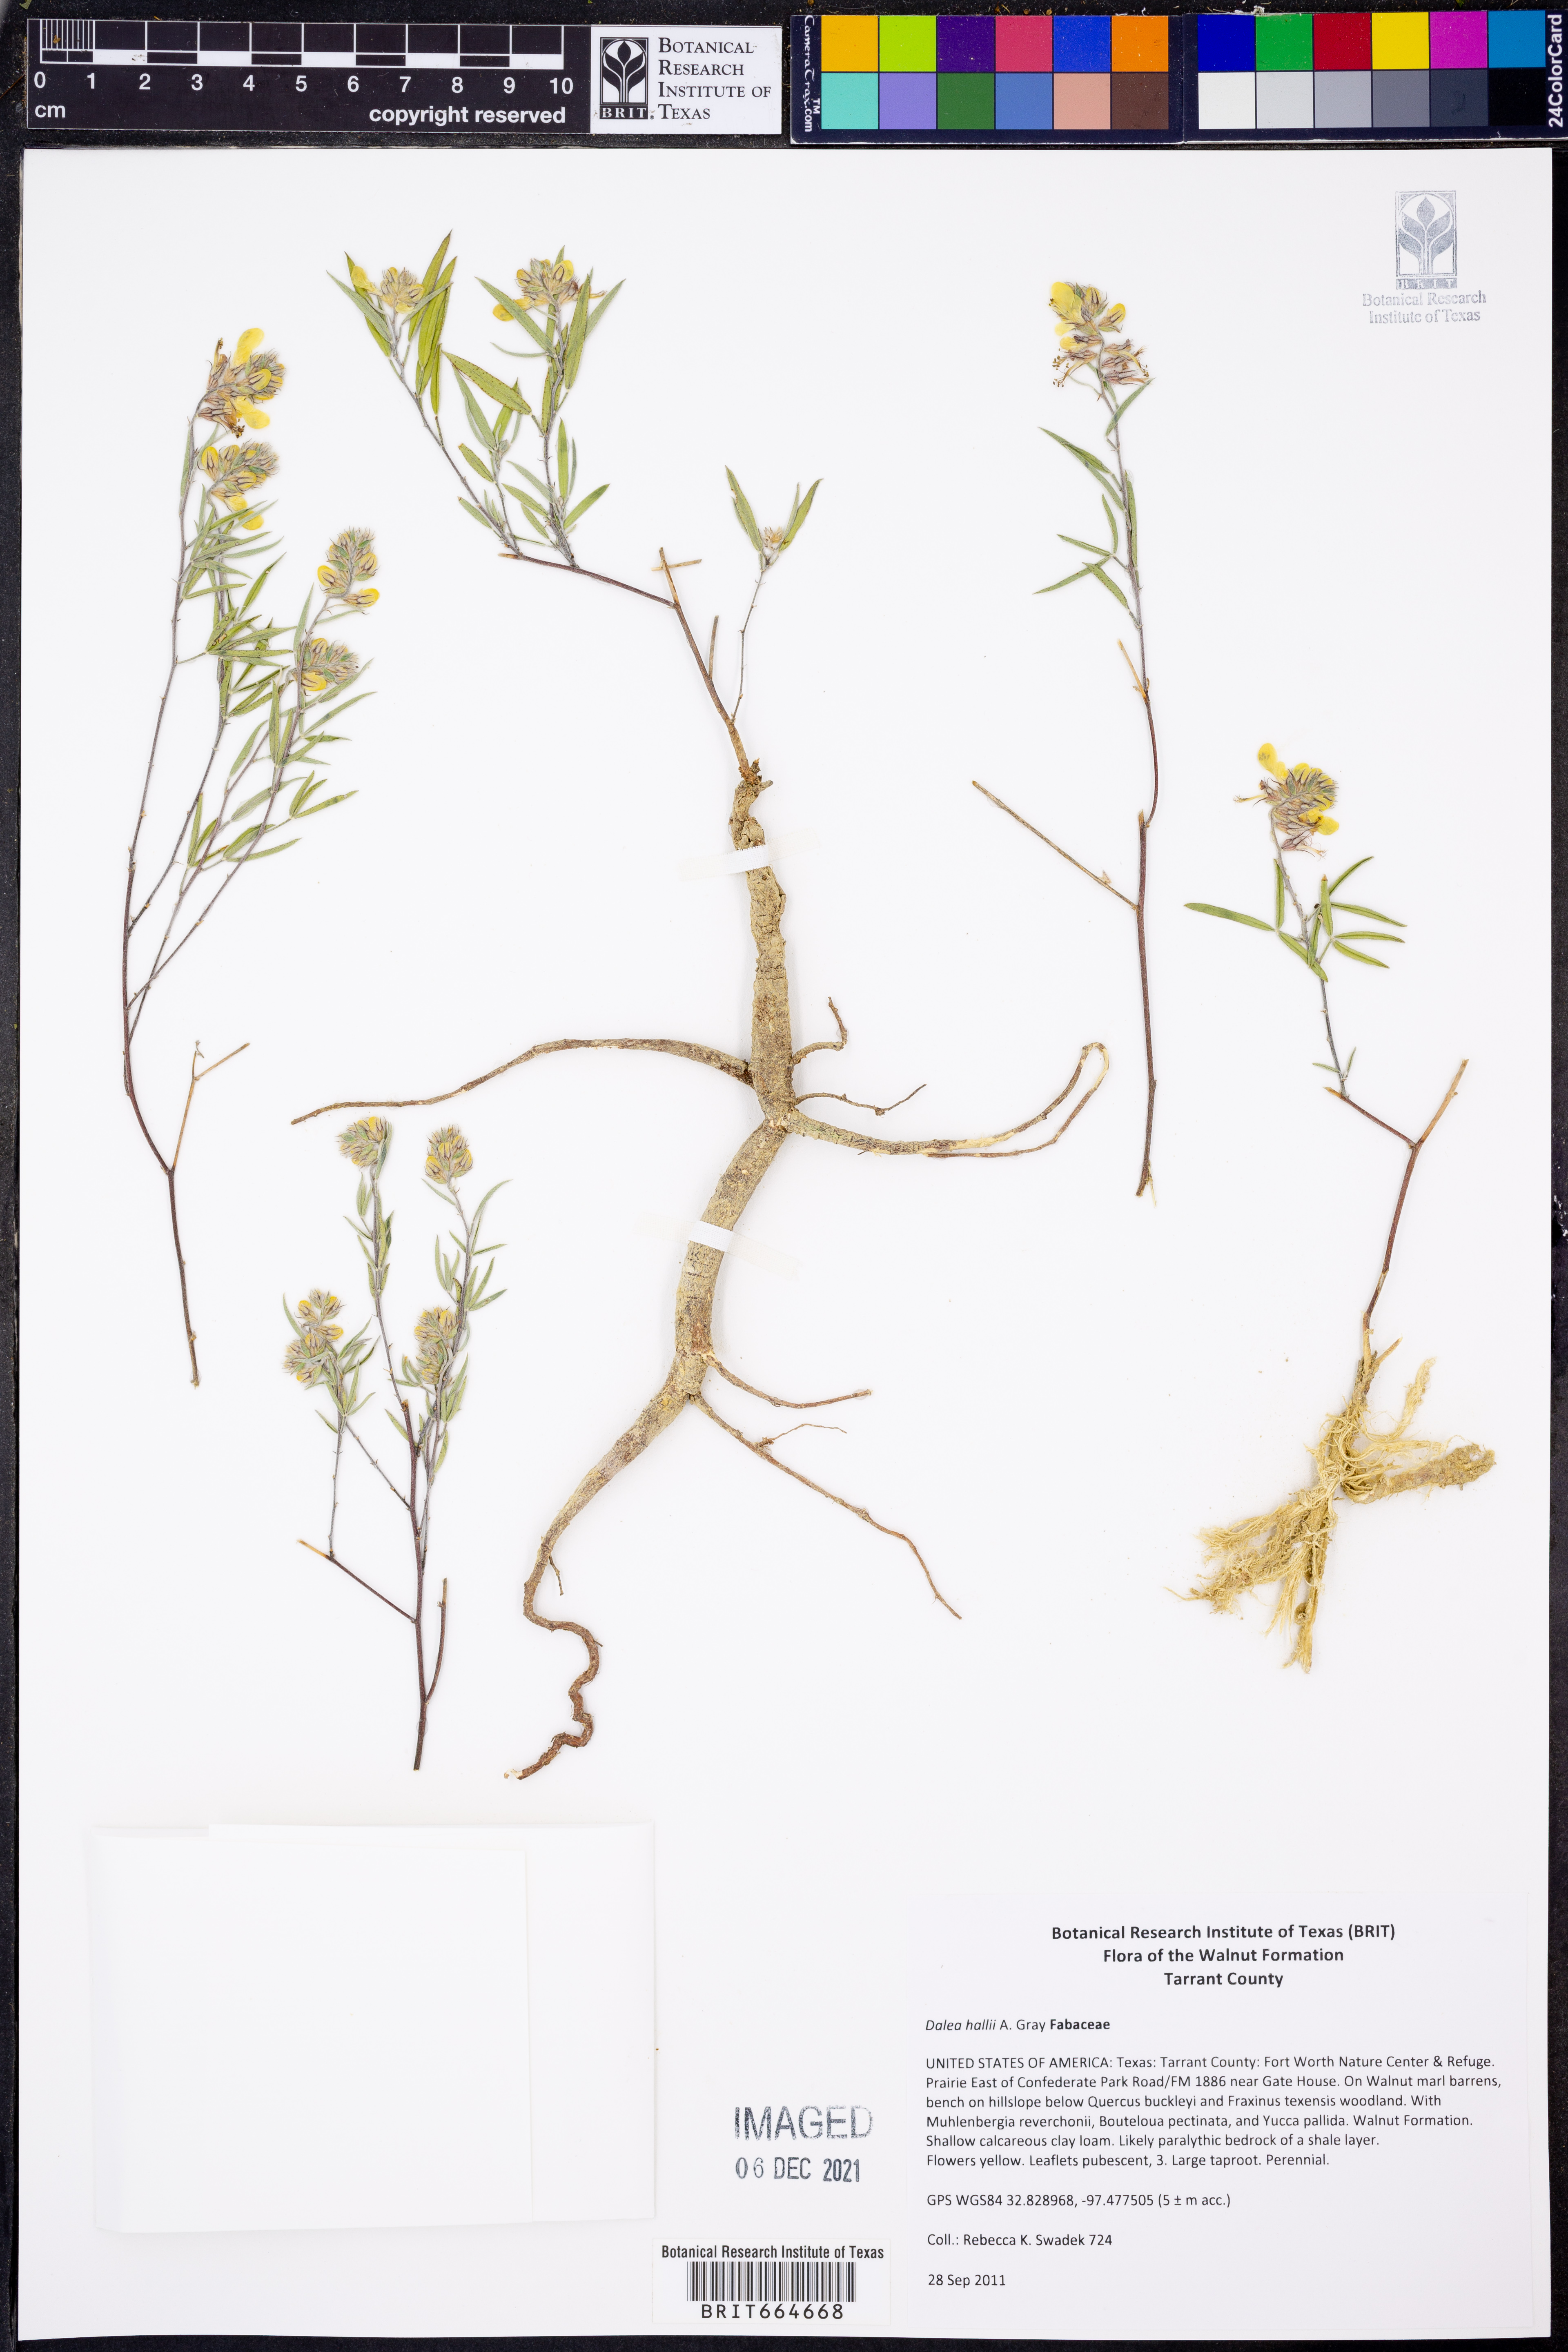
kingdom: Plantae
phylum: Tracheophyta
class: Magnoliopsida
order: Fabales
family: Fabaceae
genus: Dalea
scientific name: Dalea hallii
